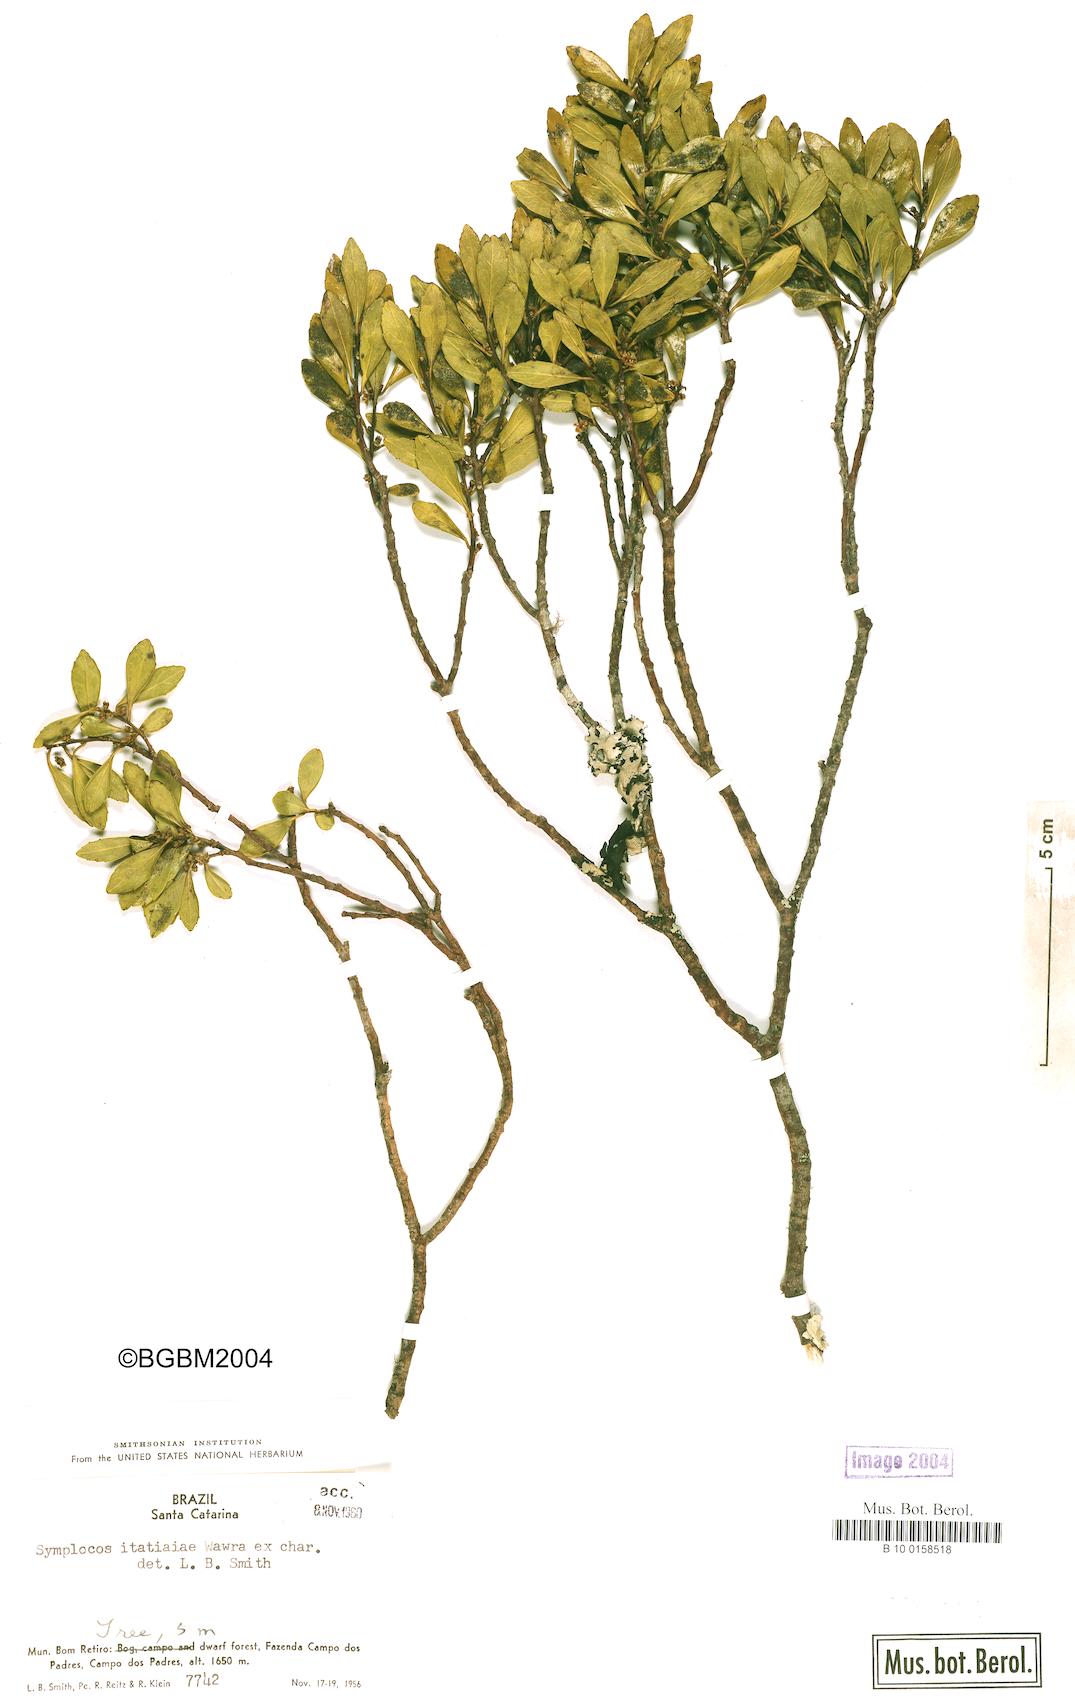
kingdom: Plantae
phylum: Tracheophyta
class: Magnoliopsida
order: Ericales
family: Symplocaceae
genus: Symplocos
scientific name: Symplocos pentandra
